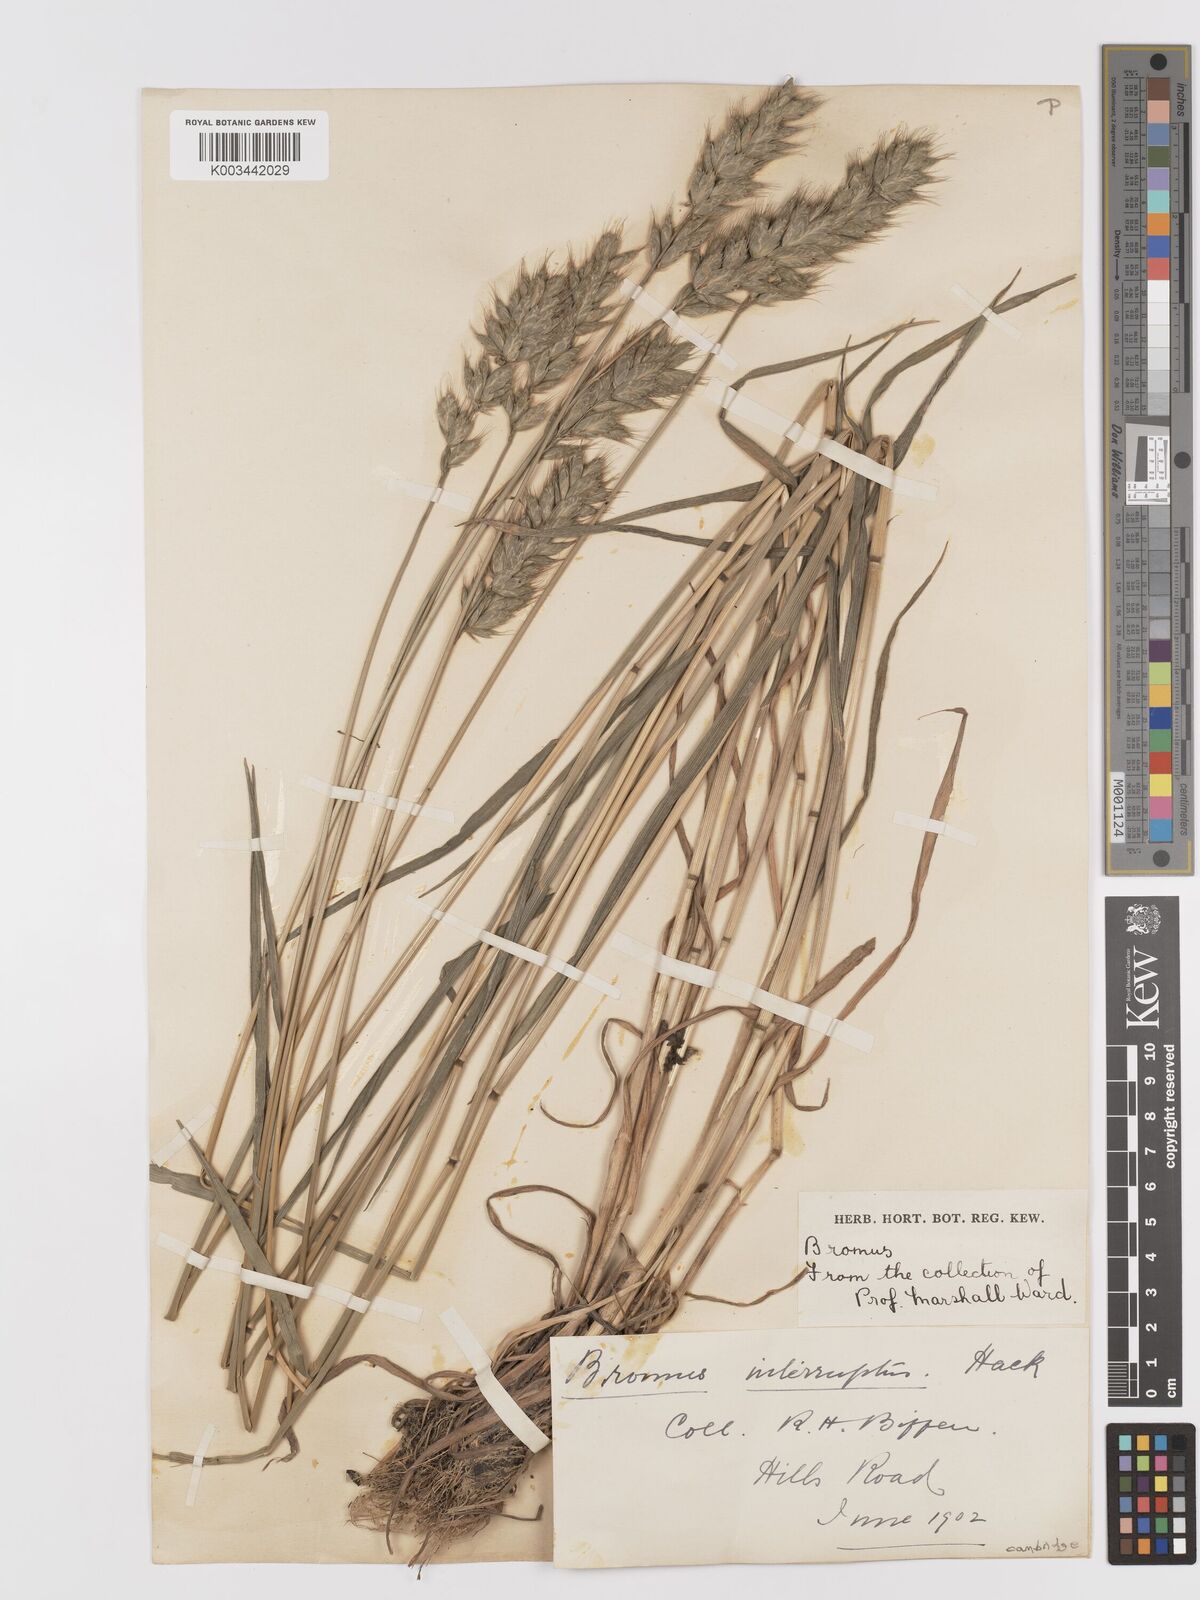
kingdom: Plantae
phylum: Tracheophyta
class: Liliopsida
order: Poales
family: Poaceae
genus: Bromus
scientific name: Bromus interruptus
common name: Interrupted brome
